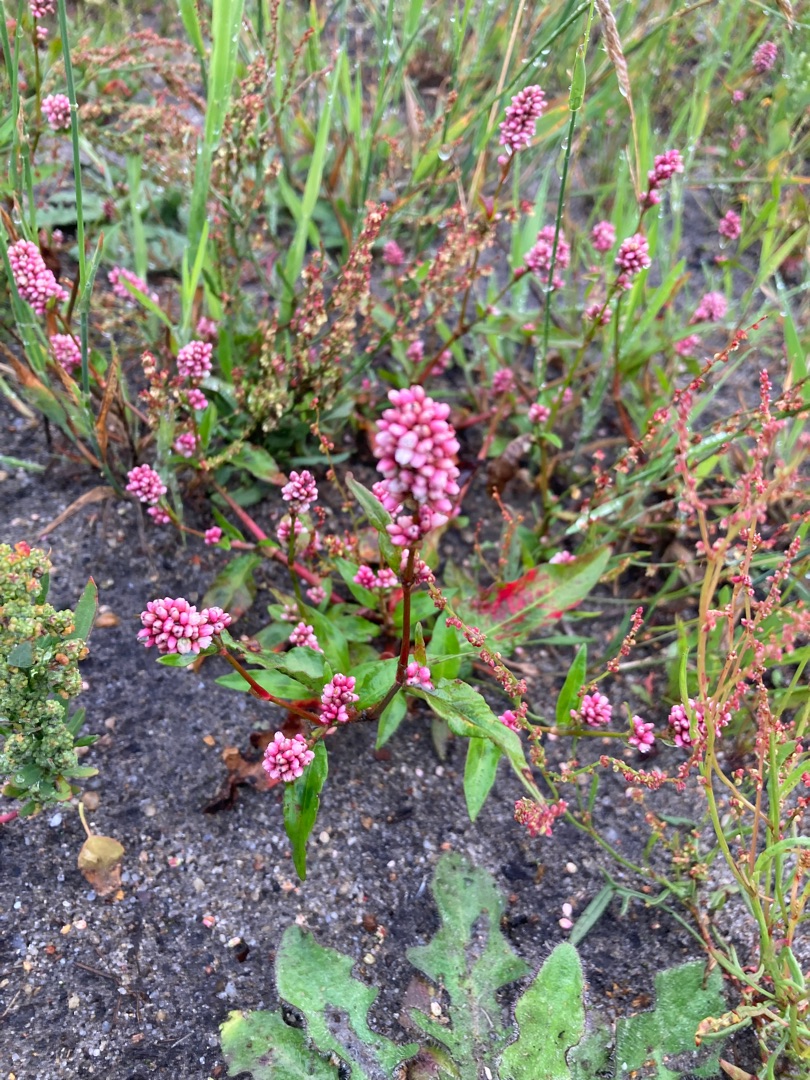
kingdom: Plantae
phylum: Tracheophyta
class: Magnoliopsida
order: Caryophyllales
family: Polygonaceae
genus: Persicaria
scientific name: Persicaria maculosa
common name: Fersken-pileurt
